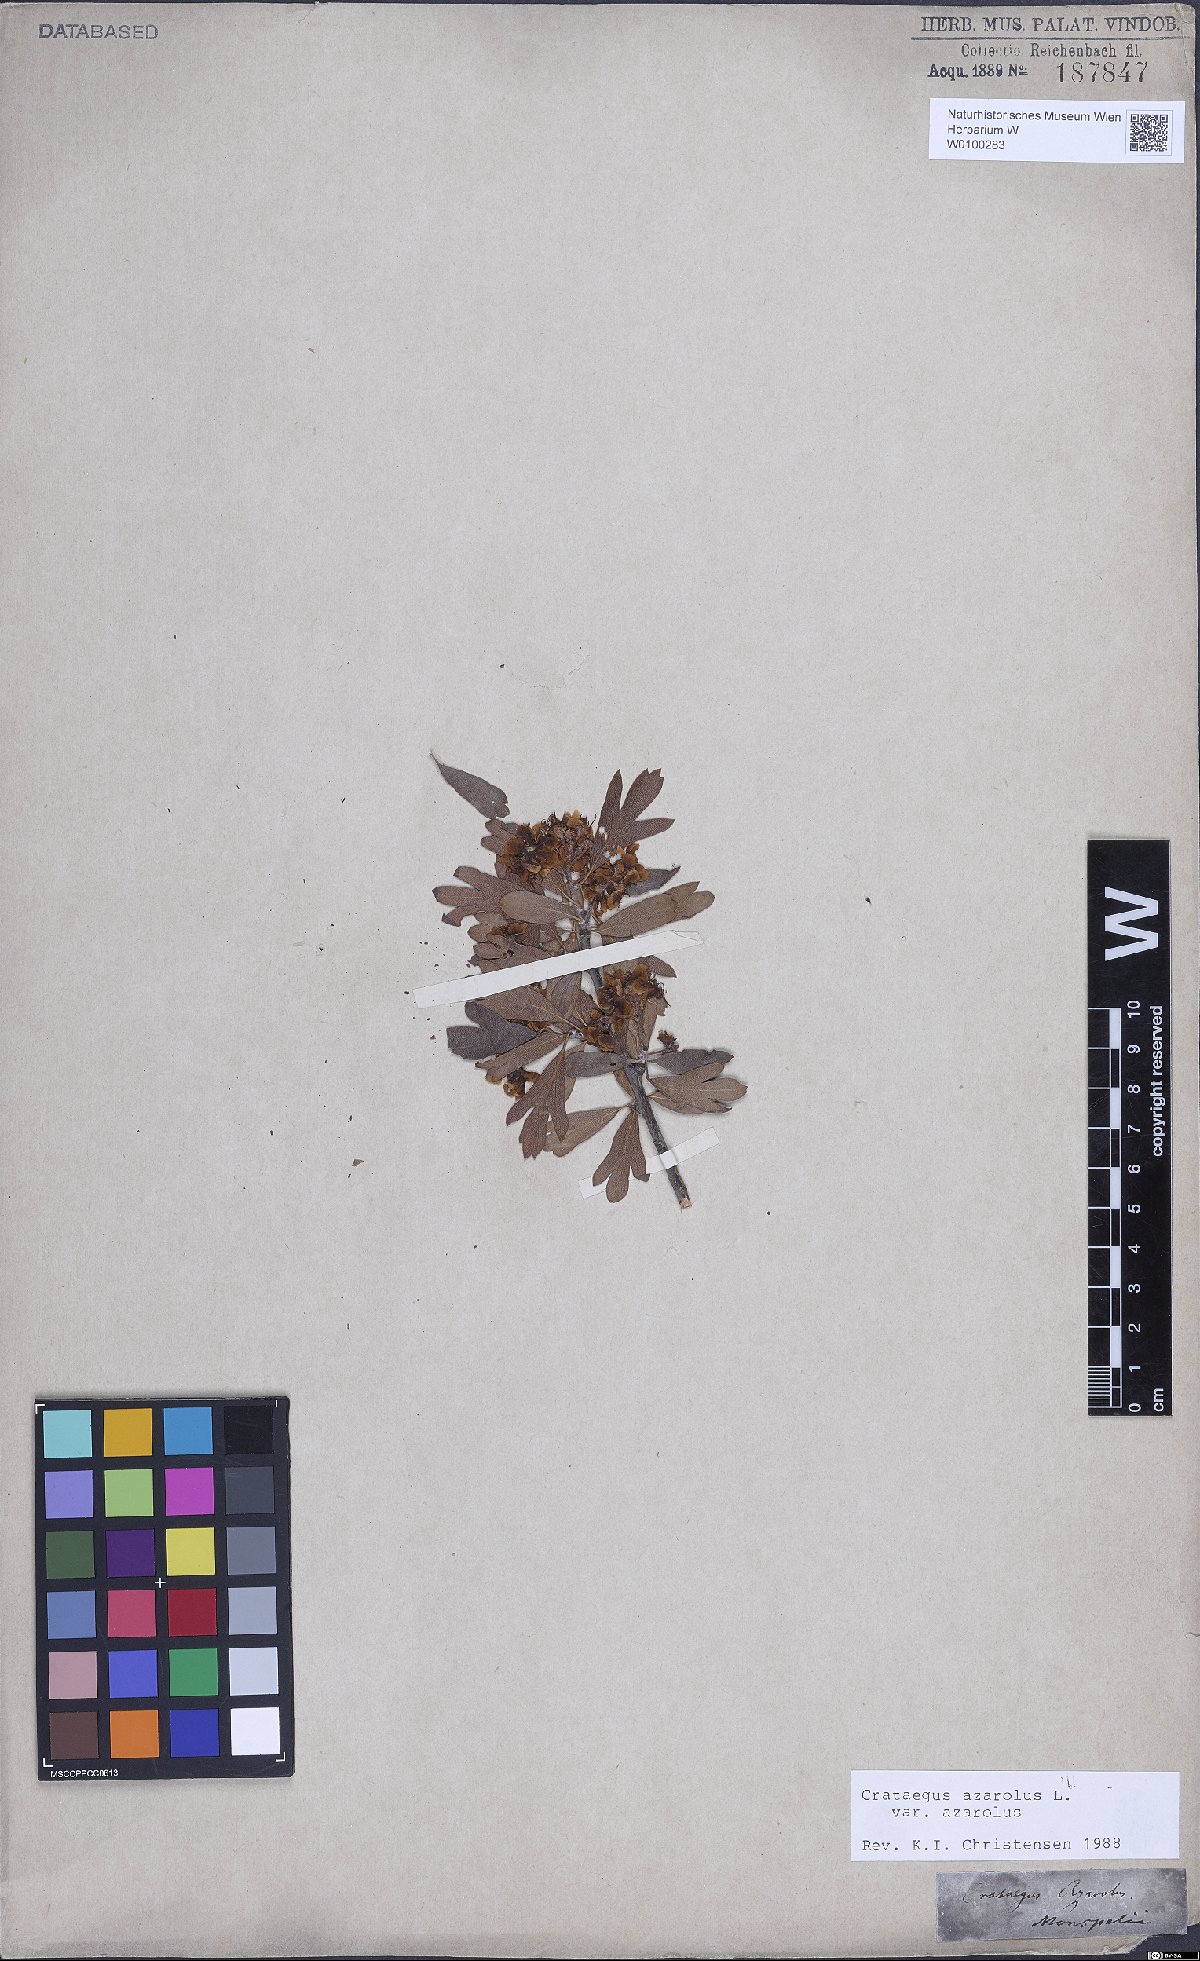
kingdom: Plantae
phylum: Tracheophyta
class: Magnoliopsida
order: Rosales
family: Rosaceae
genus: Crataegus
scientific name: Crataegus azarolus
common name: Azarole
